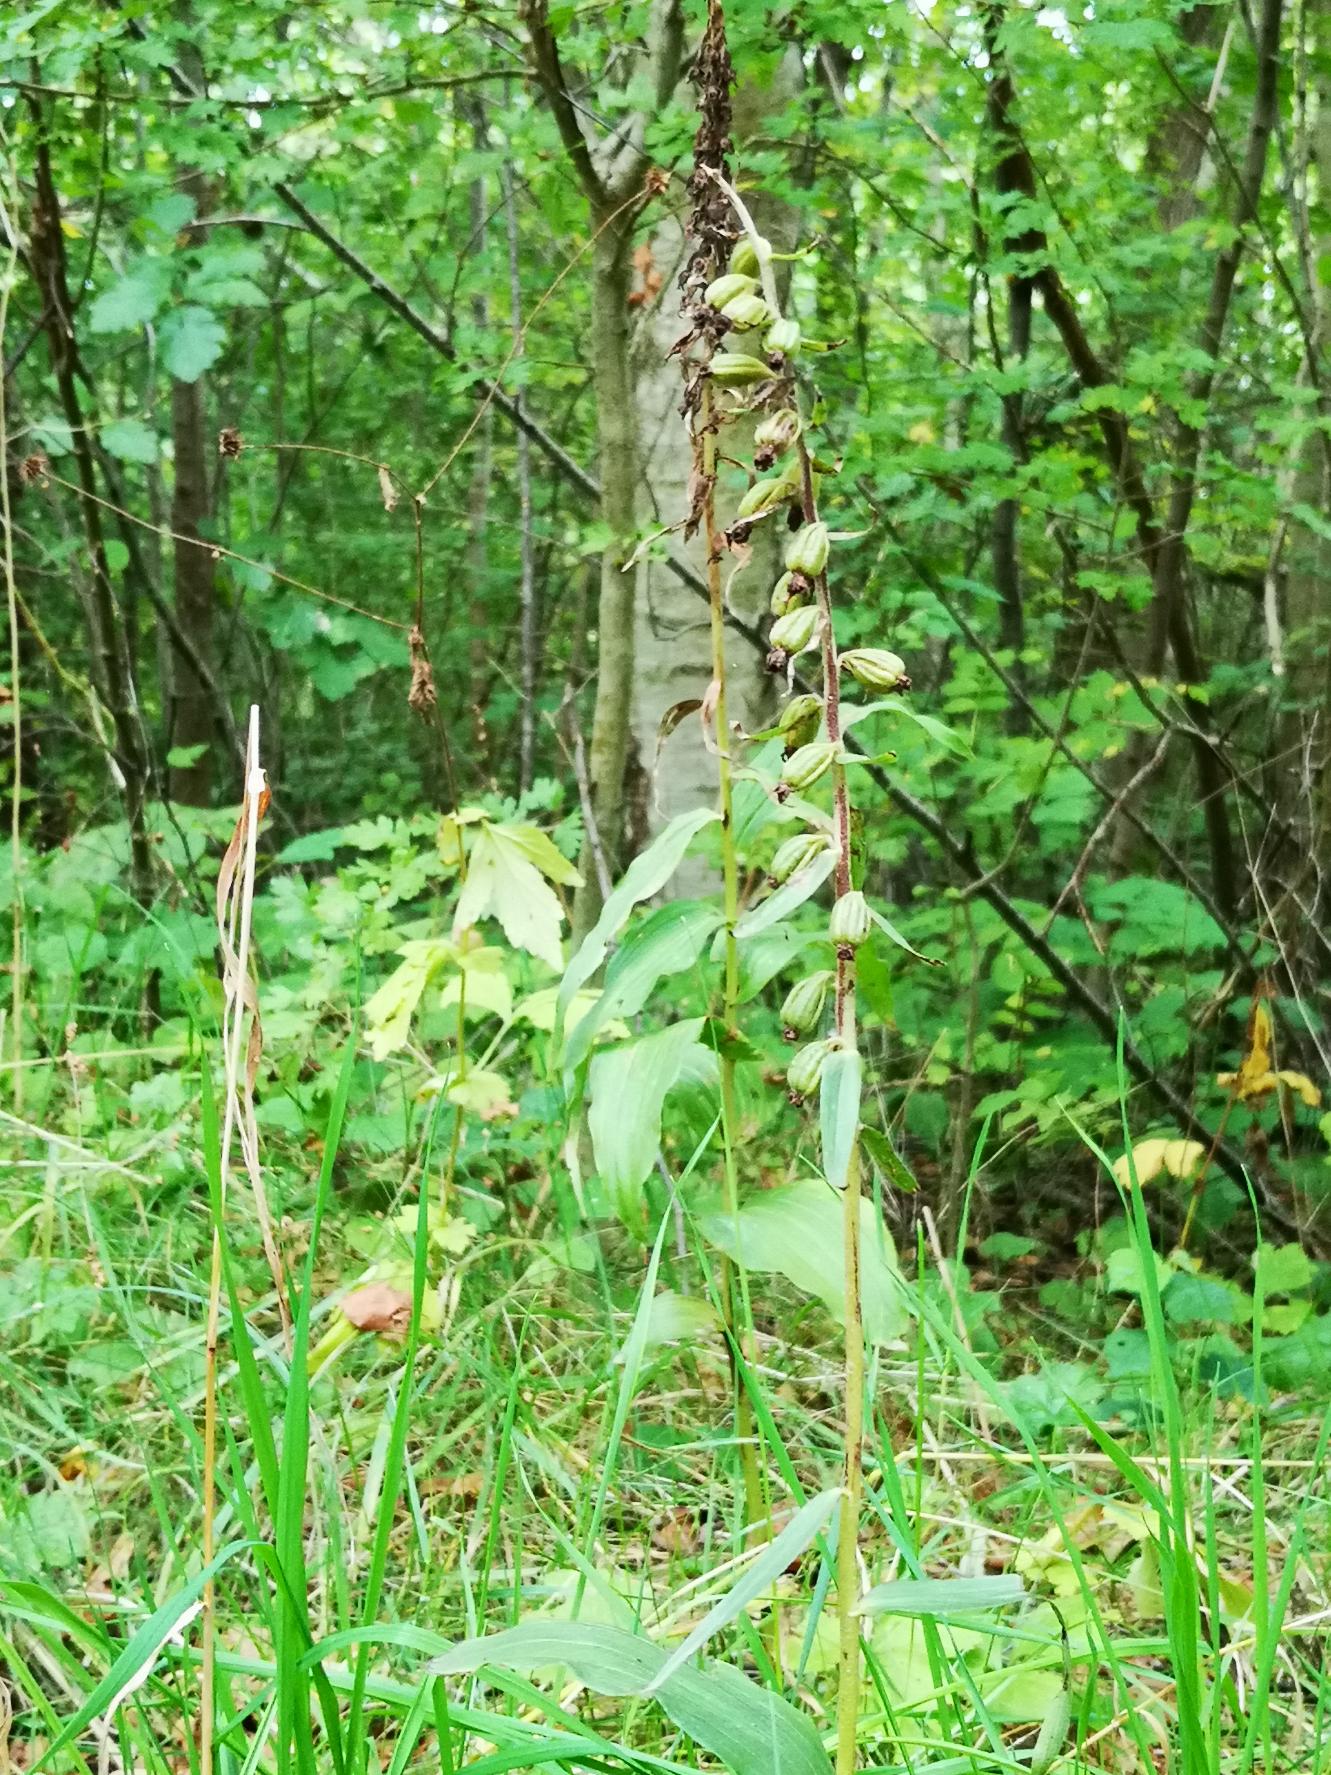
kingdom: Plantae
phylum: Tracheophyta
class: Liliopsida
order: Asparagales
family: Orchidaceae
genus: Epipactis
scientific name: Epipactis helleborine
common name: Skov-hullæbe
